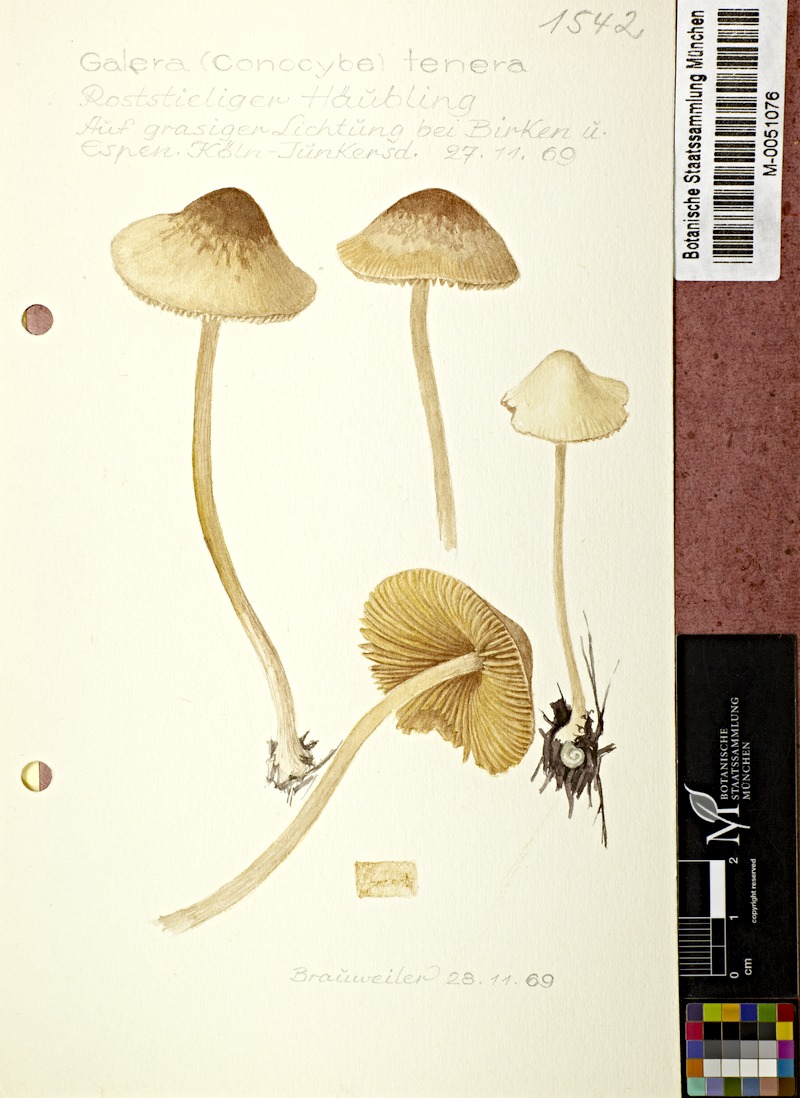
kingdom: Fungi
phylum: Basidiomycota
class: Agaricomycetes
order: Agaricales
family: Bolbitiaceae
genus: Conocybe
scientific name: Conocybe tenera
